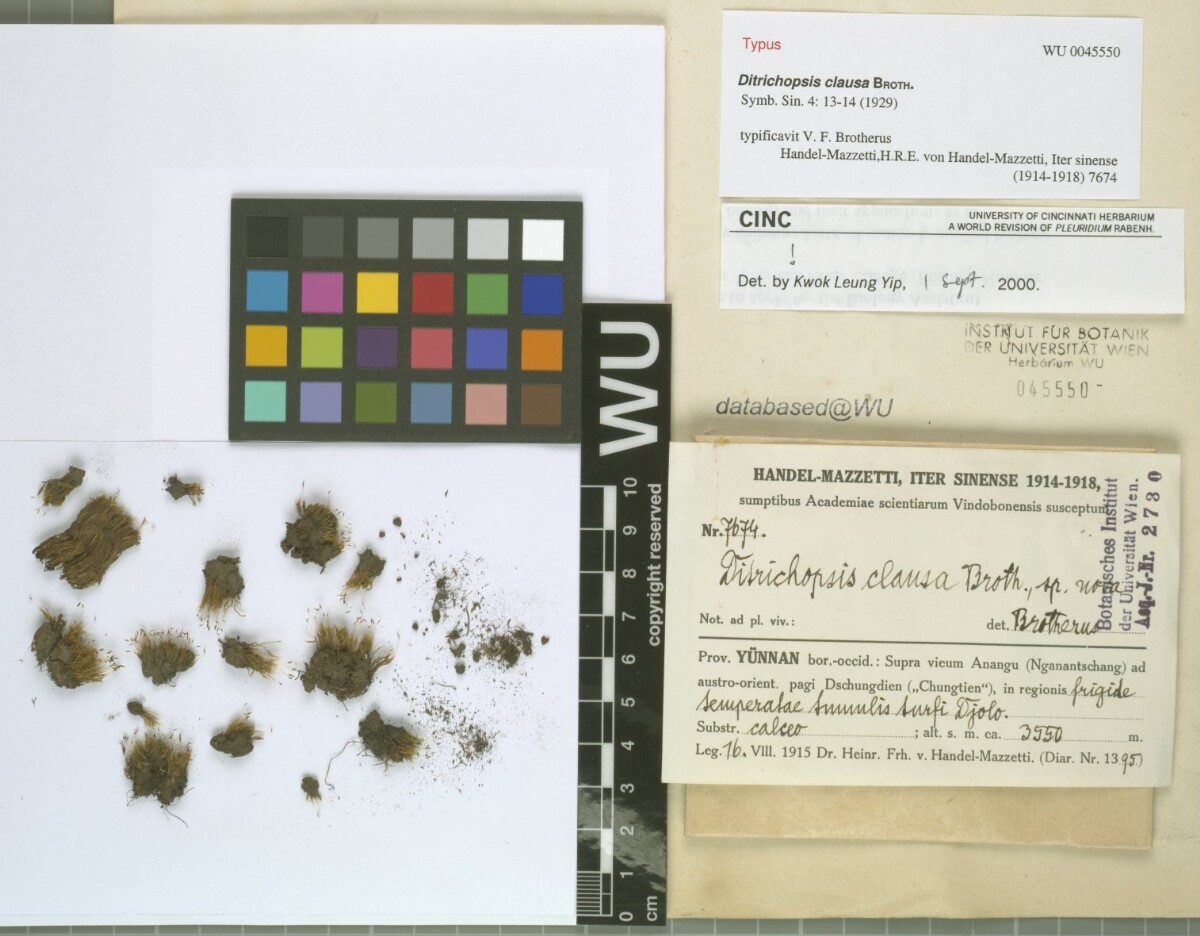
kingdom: Plantae
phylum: Bryophyta
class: Bryopsida
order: Dicranales
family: Ditrichaceae
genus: Ditrichopsis
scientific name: Ditrichopsis clausa
